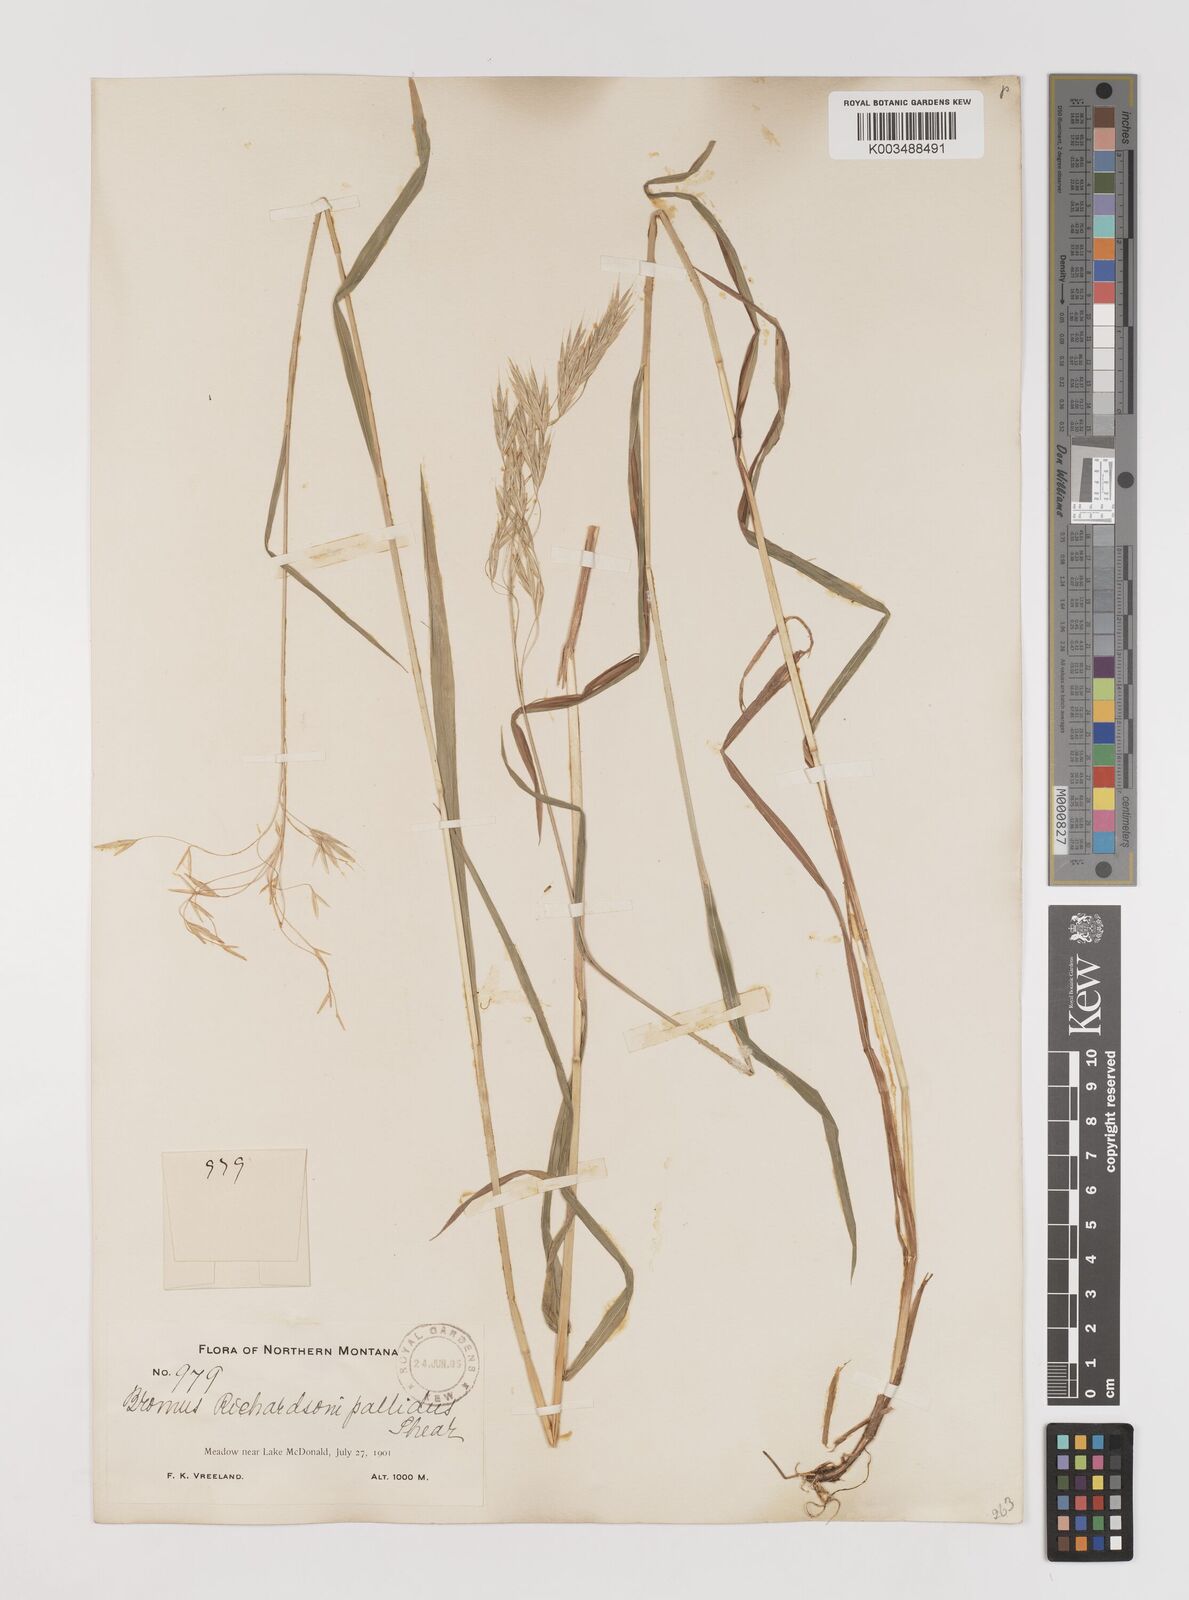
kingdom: Plantae
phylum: Tracheophyta
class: Liliopsida
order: Poales
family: Poaceae
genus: Bromus
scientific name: Bromus richardsonii
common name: Richardson's brome
